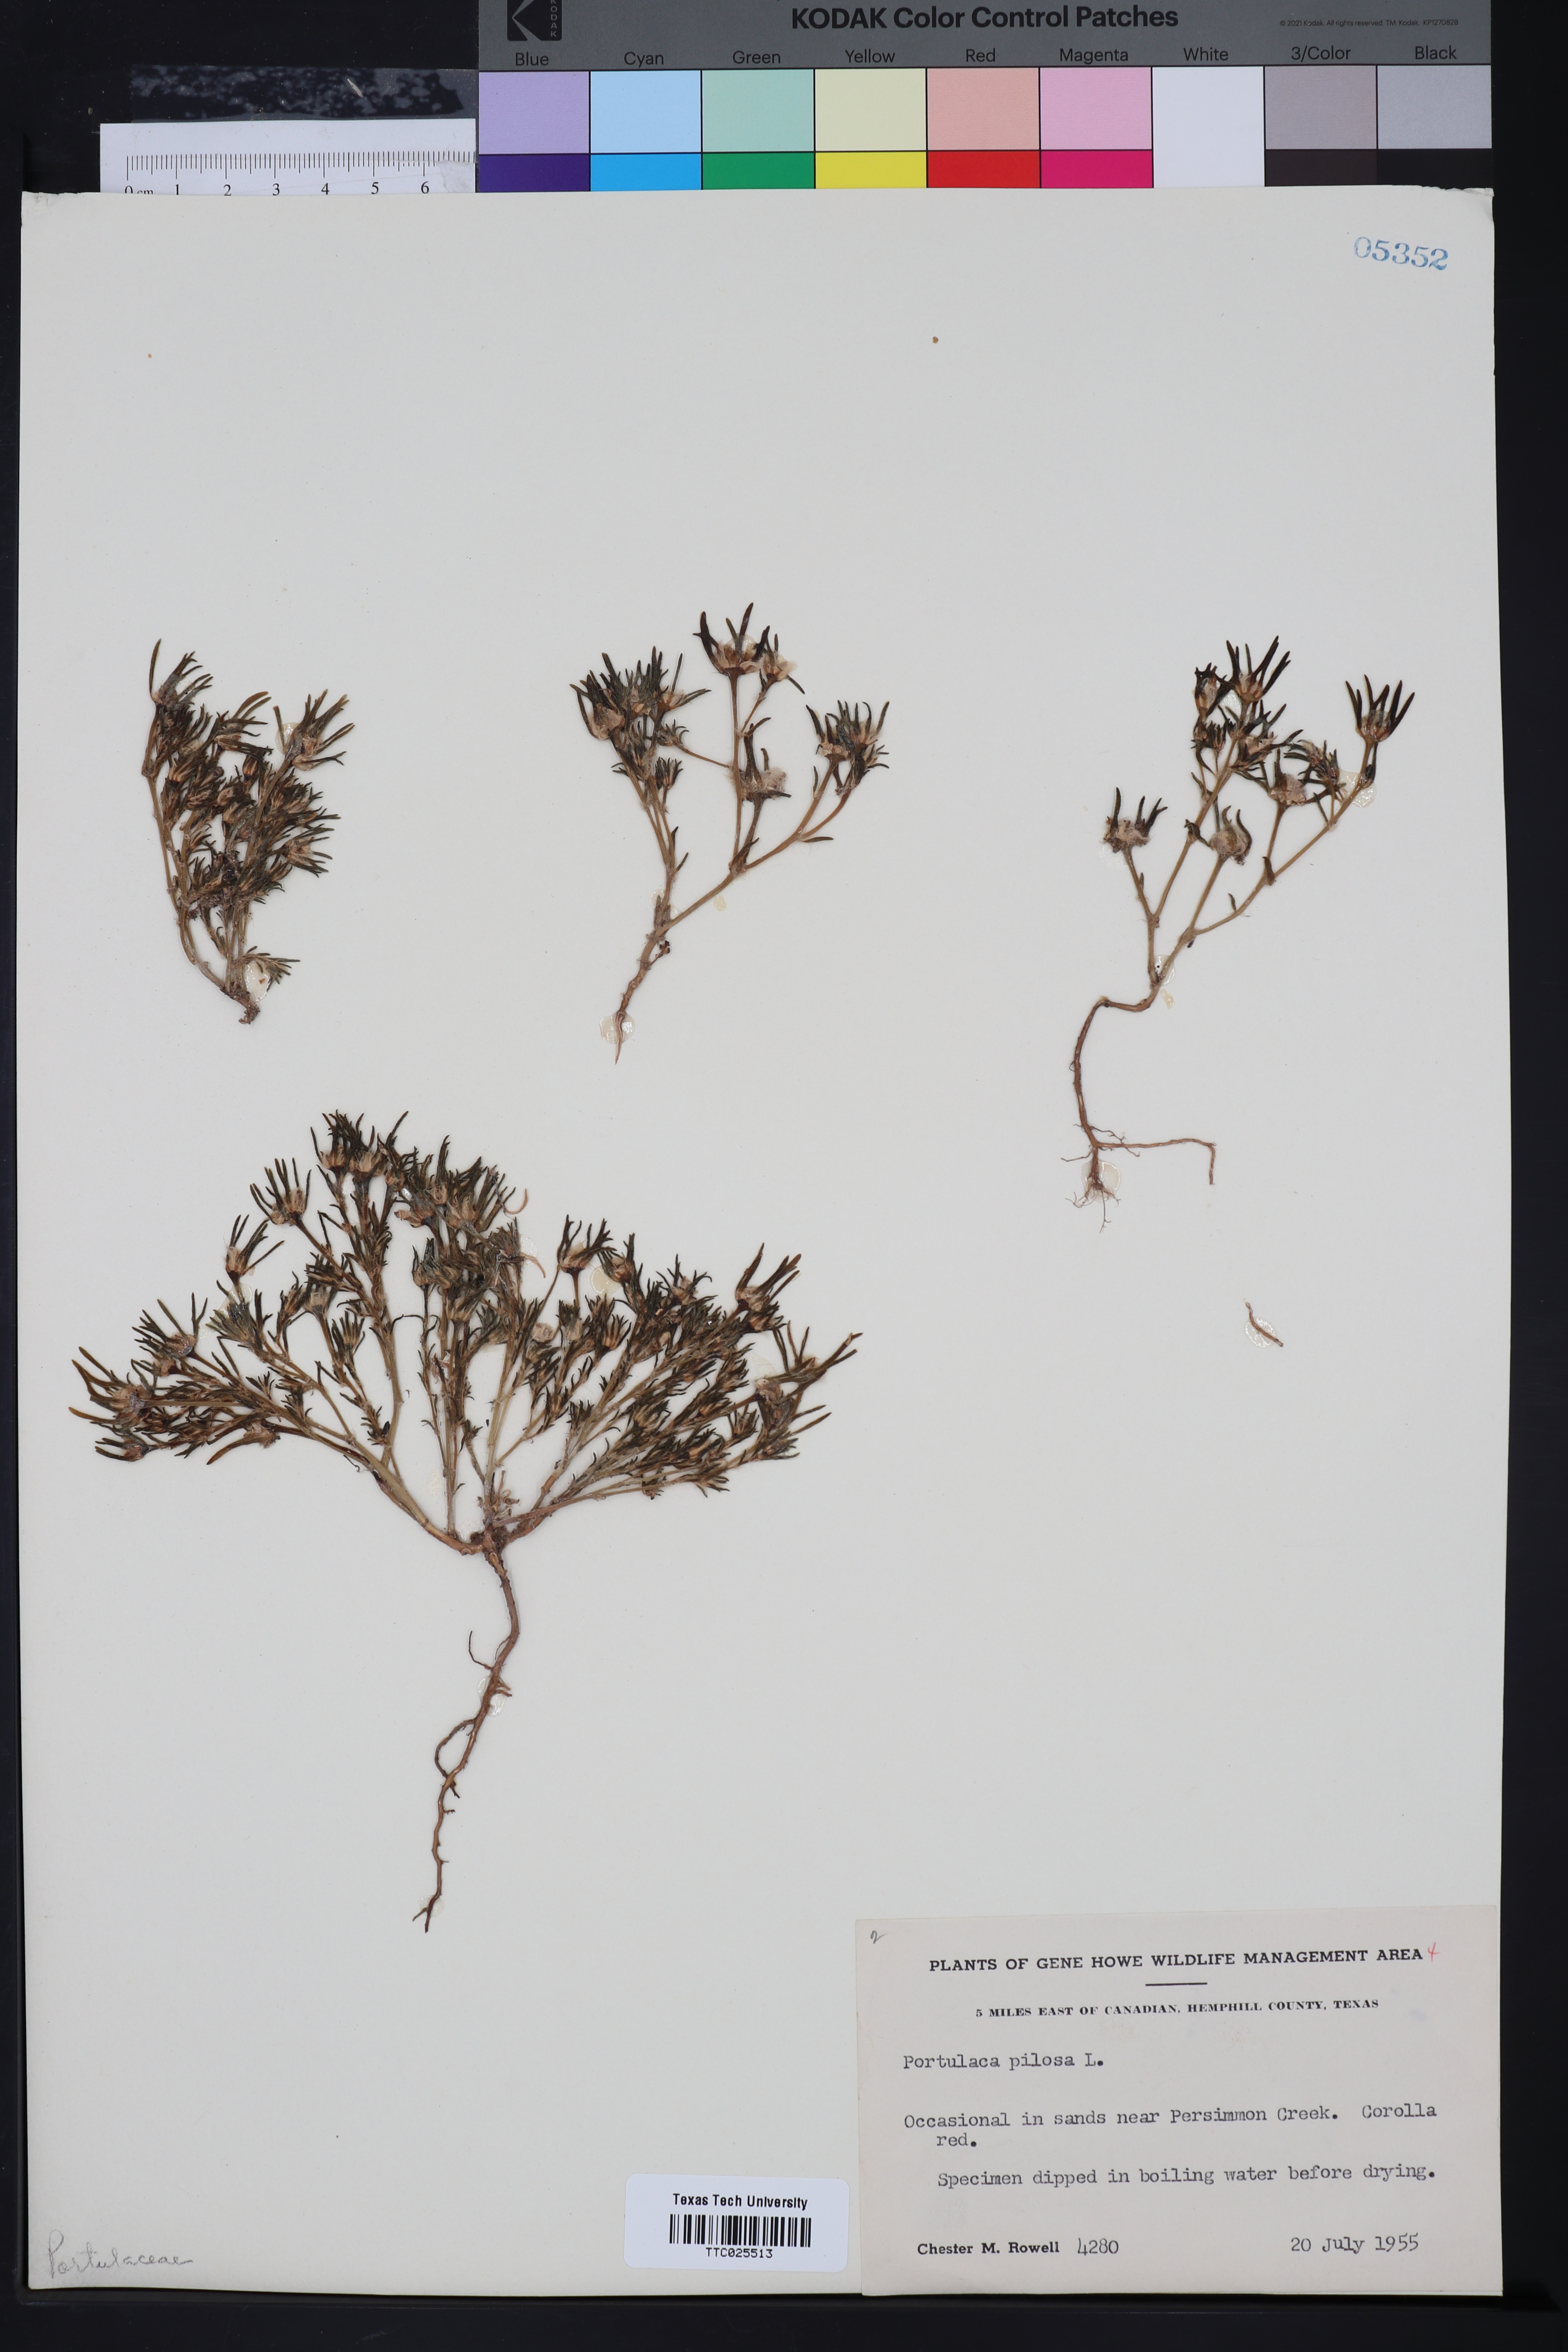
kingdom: Plantae
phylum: Tracheophyta
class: Magnoliopsida
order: Caryophyllales
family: Portulacaceae
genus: Portulaca
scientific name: Portulaca pilosa
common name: Kiss me quick
